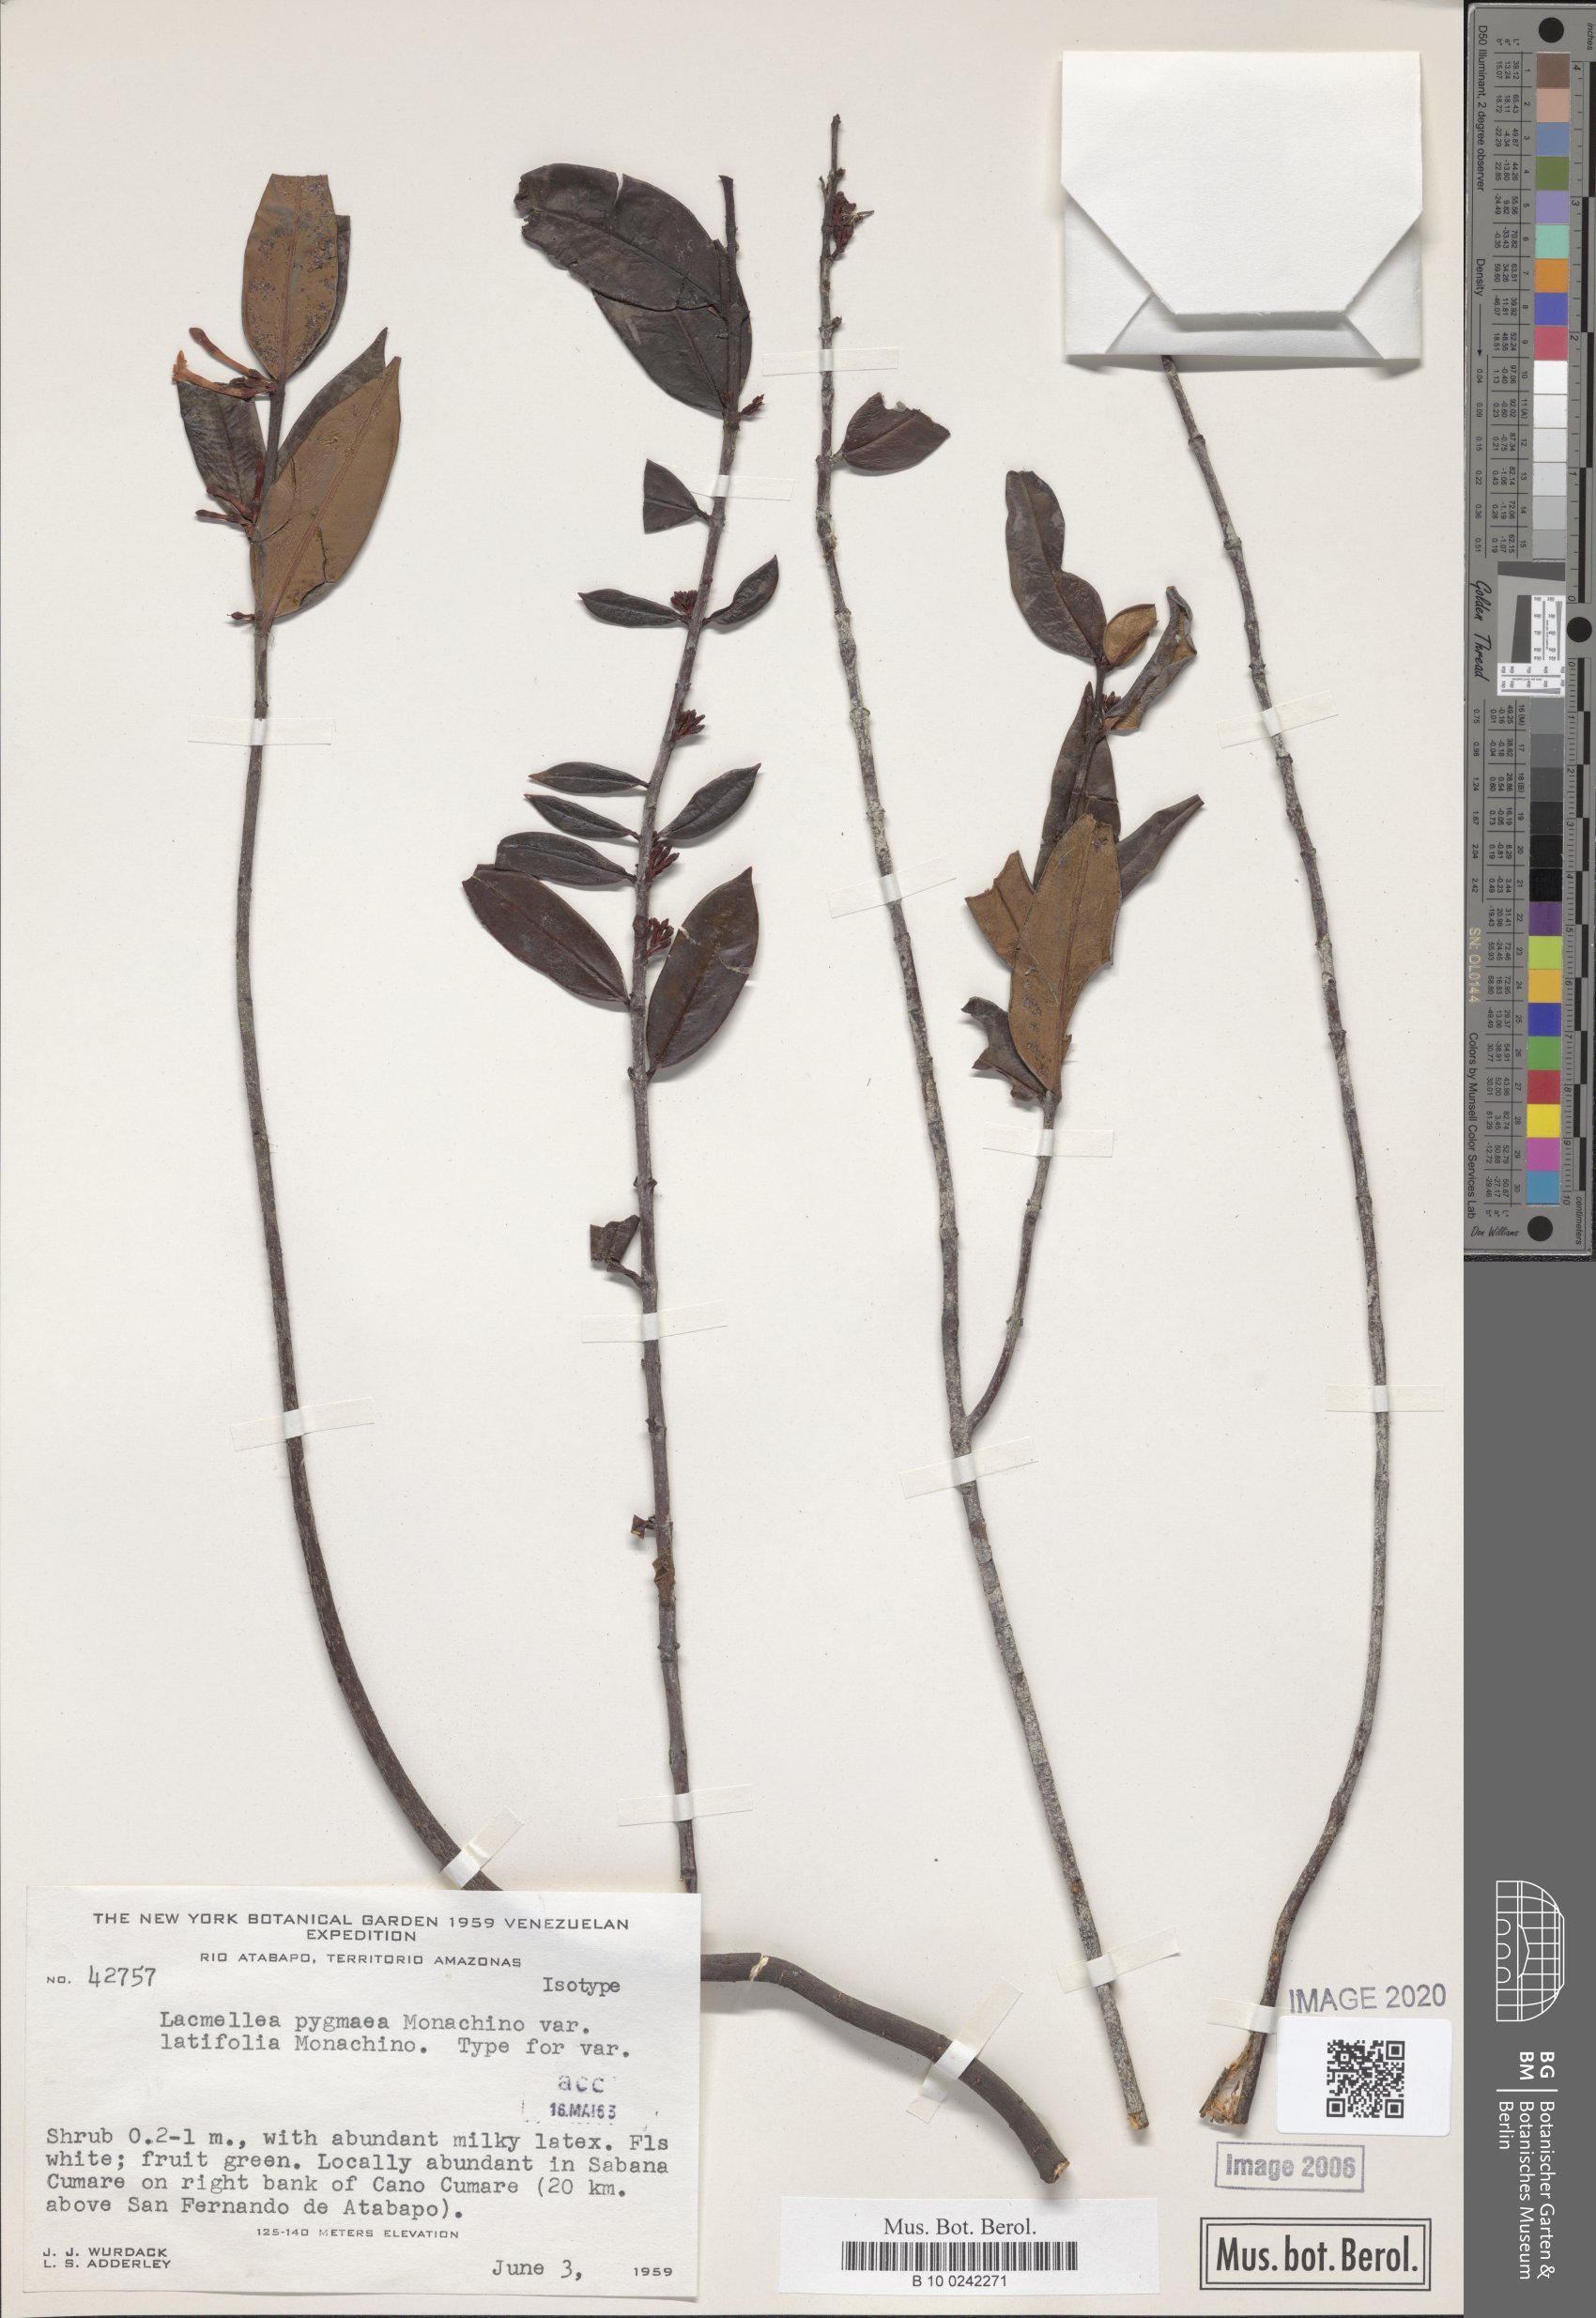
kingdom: Plantae
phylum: Tracheophyta
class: Magnoliopsida
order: Gentianales
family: Apocynaceae
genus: Lacmellea
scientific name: Lacmellea pygmaea
